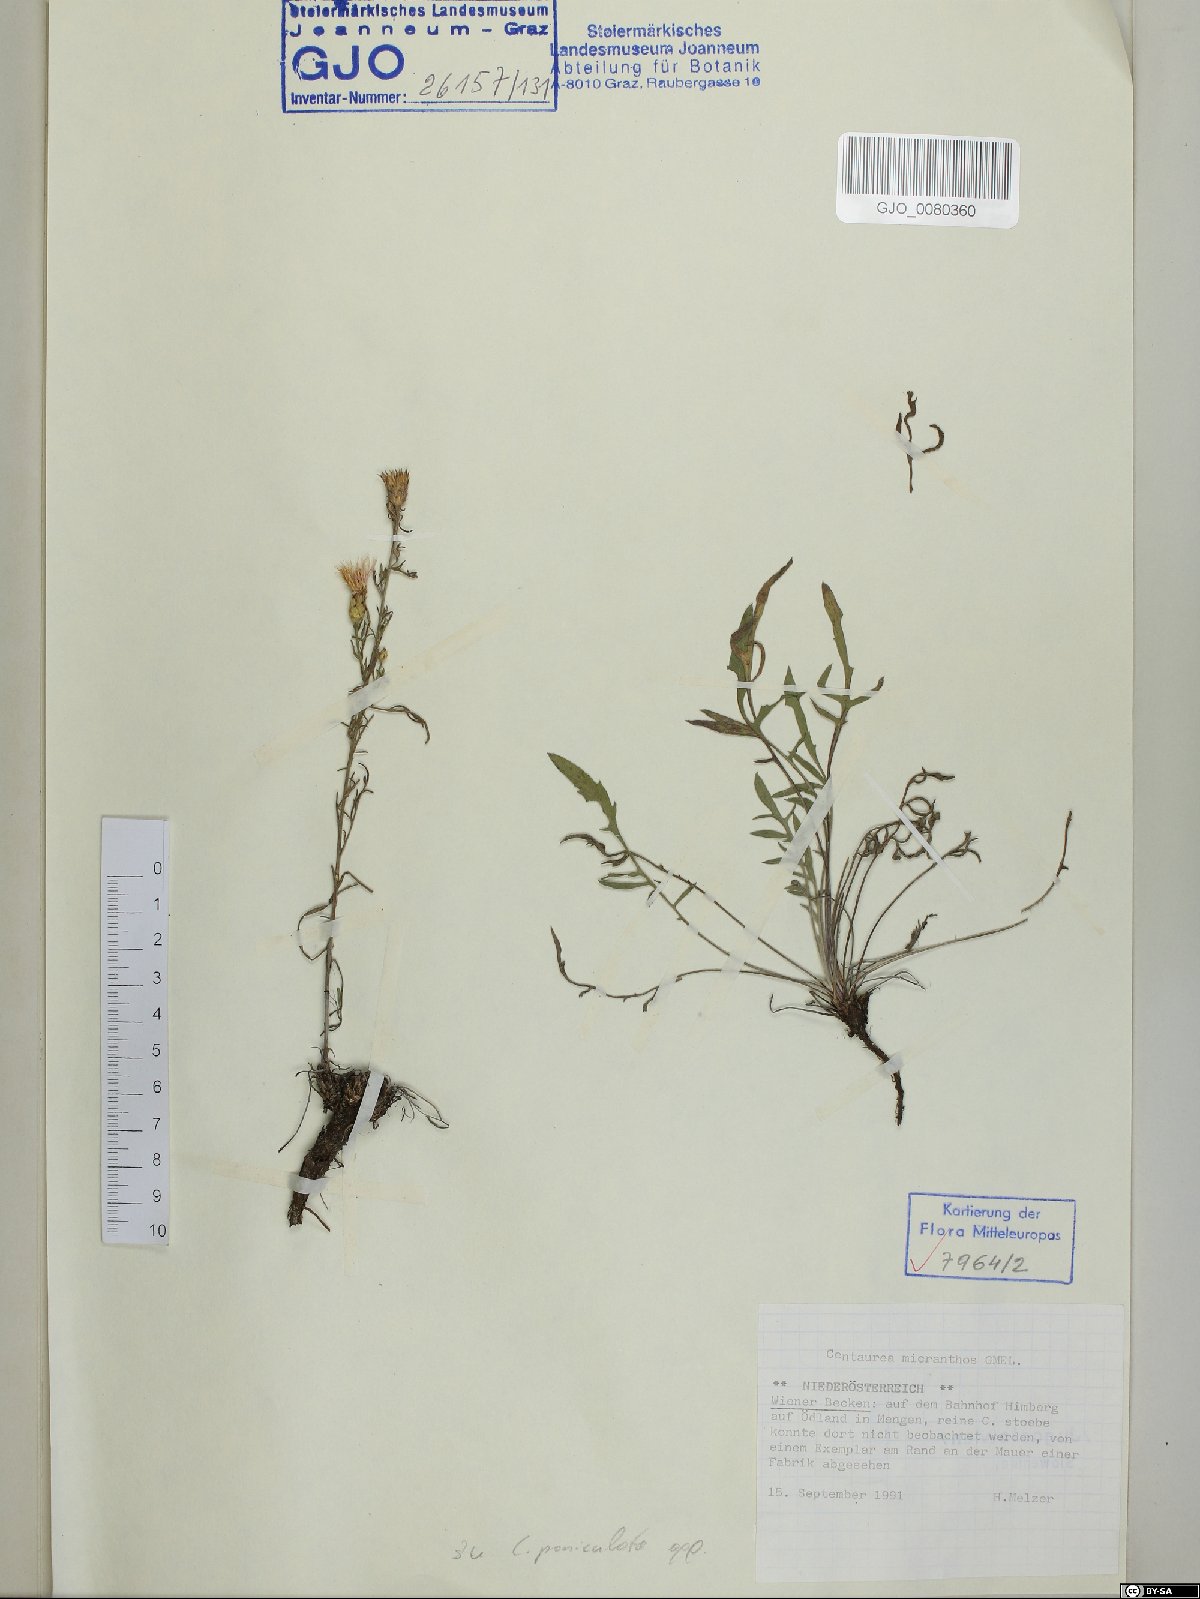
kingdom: Plantae
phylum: Tracheophyta
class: Magnoliopsida
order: Asterales
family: Asteraceae
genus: Centaurea
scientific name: Centaurea micranthos
